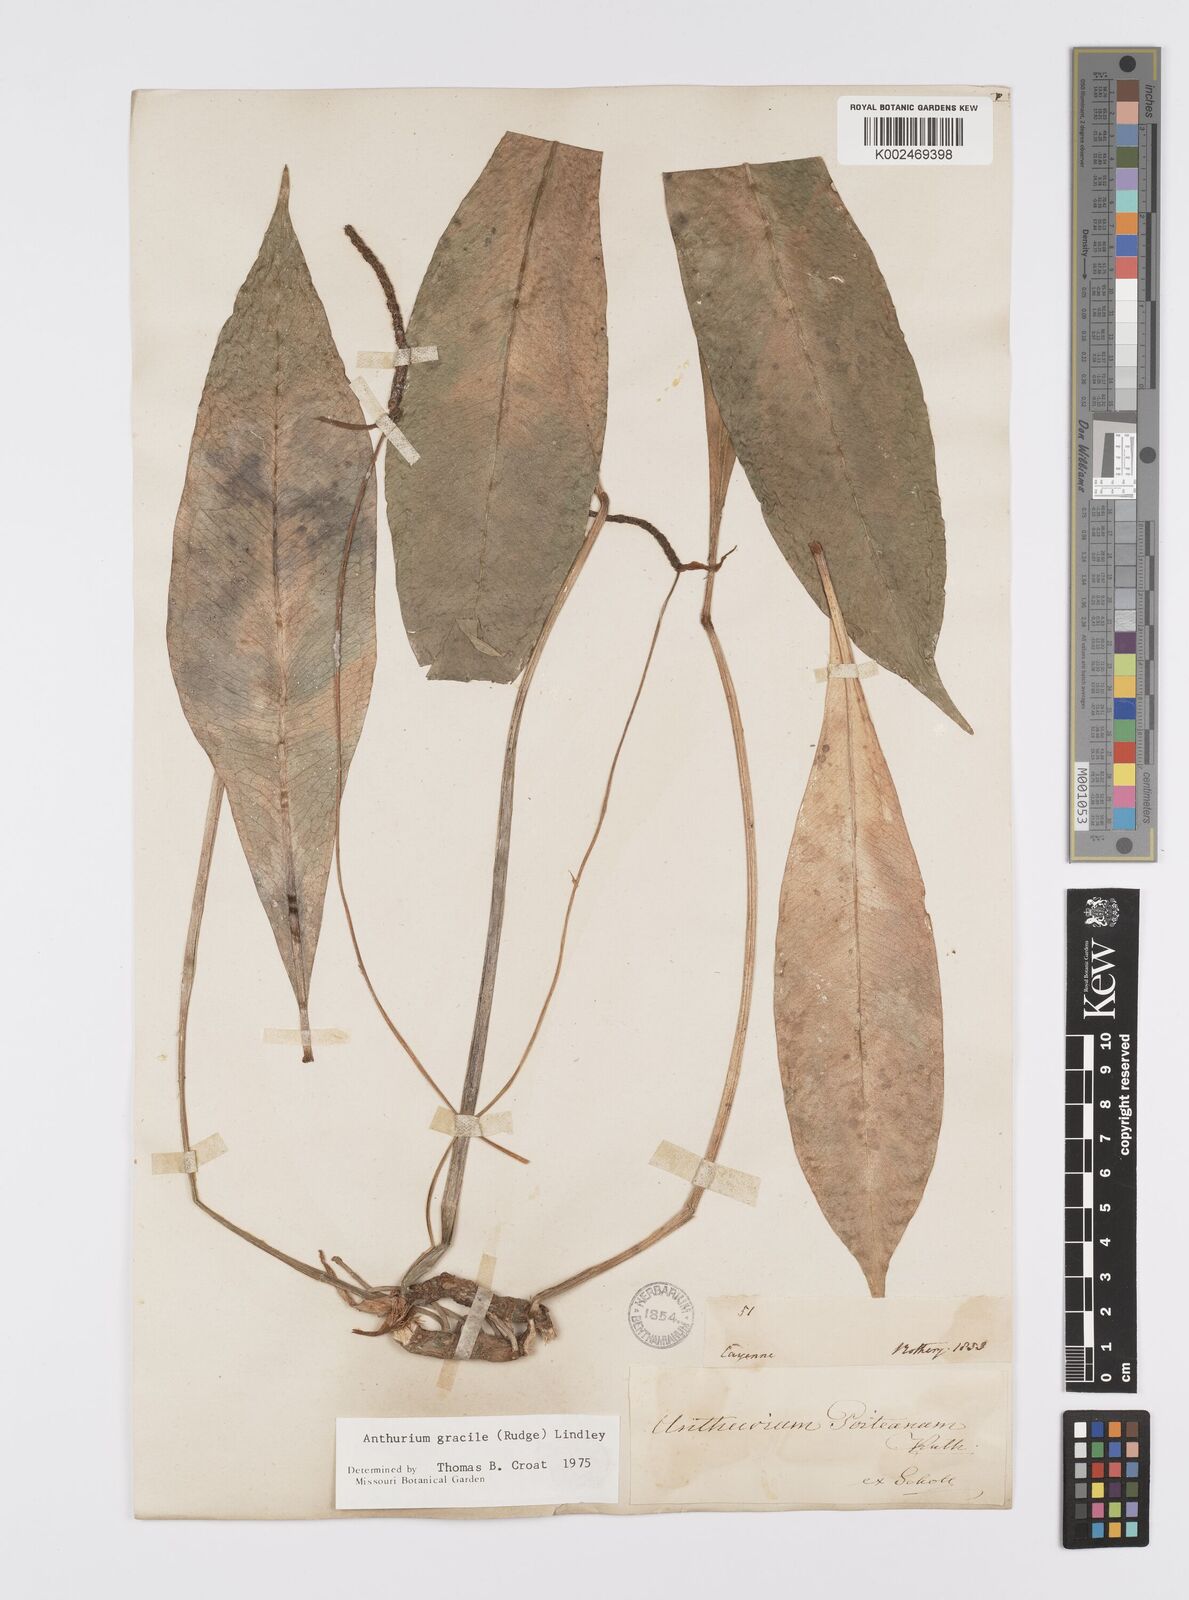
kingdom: Plantae
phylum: Tracheophyta
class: Liliopsida
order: Alismatales
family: Araceae
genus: Anthurium
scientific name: Anthurium gracile
